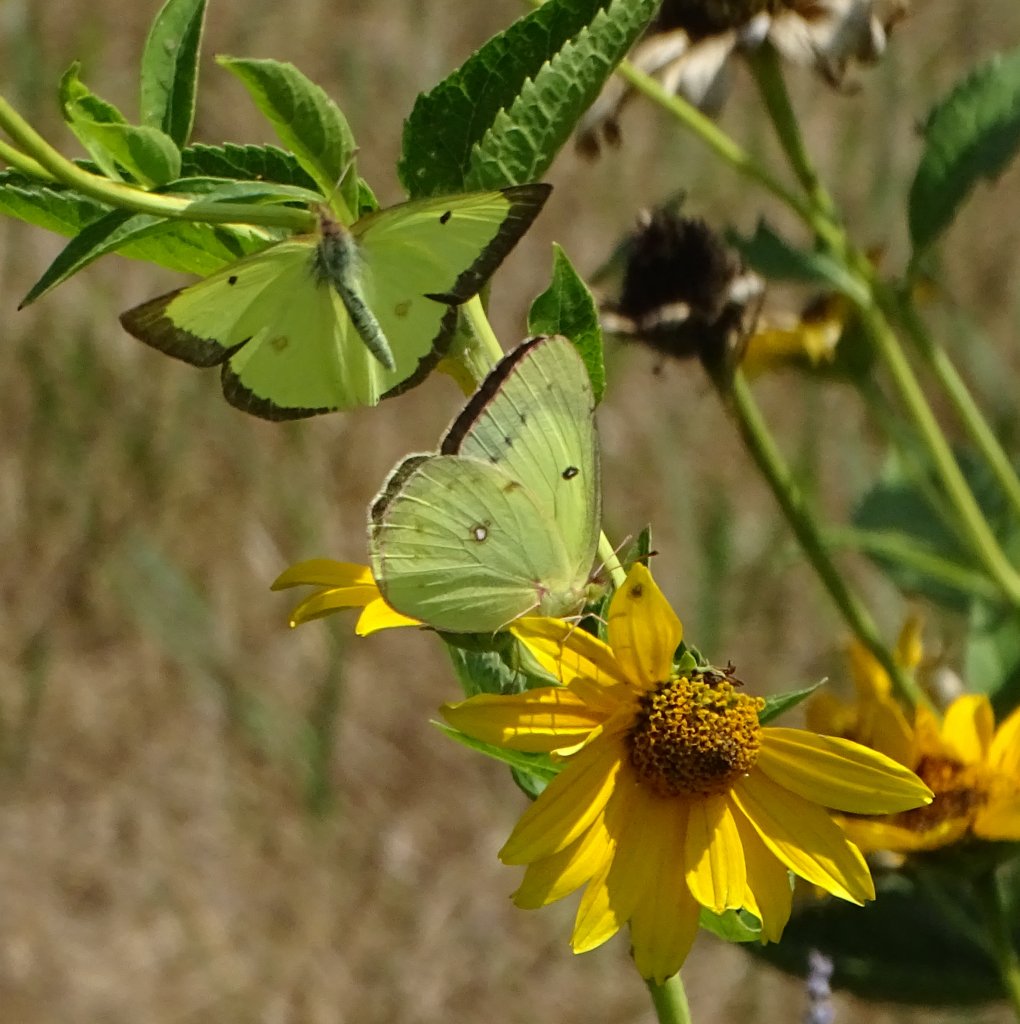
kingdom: Animalia
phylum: Arthropoda
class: Insecta
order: Lepidoptera
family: Pieridae
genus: Colias
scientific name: Colias philodice
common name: Clouded Sulphur
